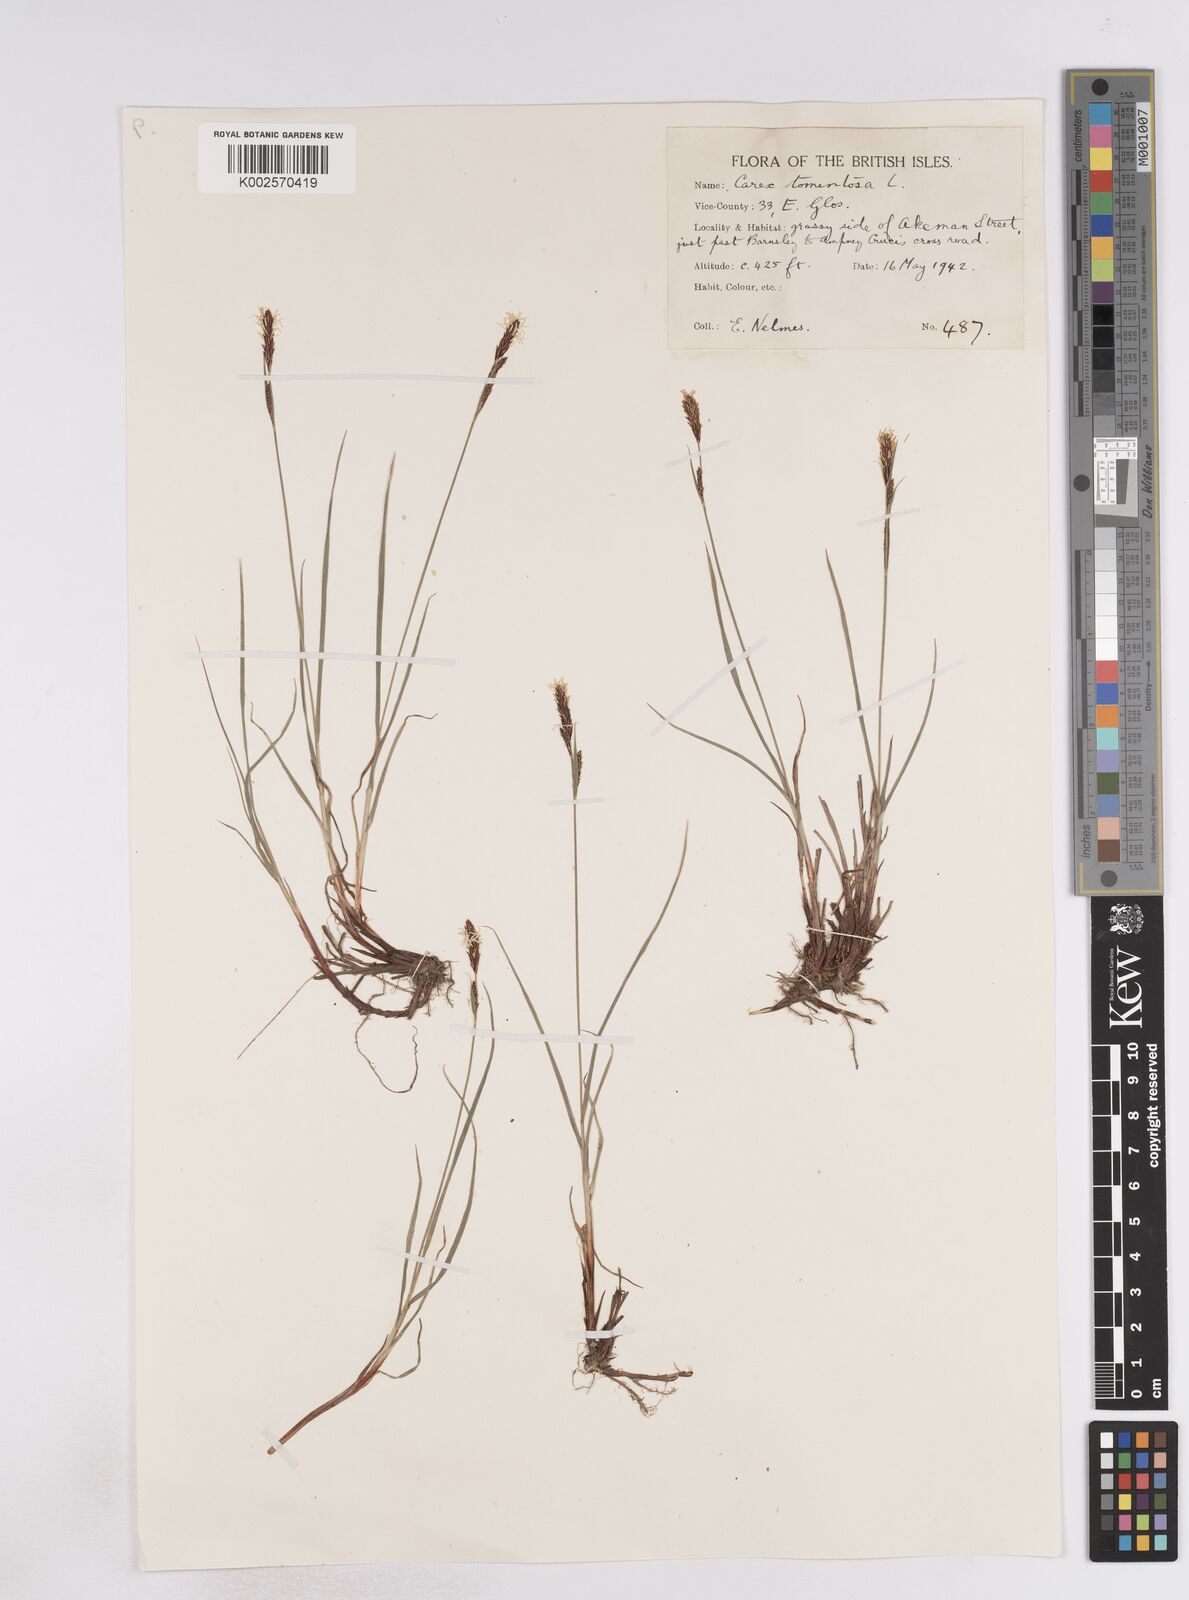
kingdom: Plantae
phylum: Tracheophyta
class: Liliopsida
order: Poales
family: Cyperaceae
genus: Carex
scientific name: Carex montana
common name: Soft-leaved sedge
